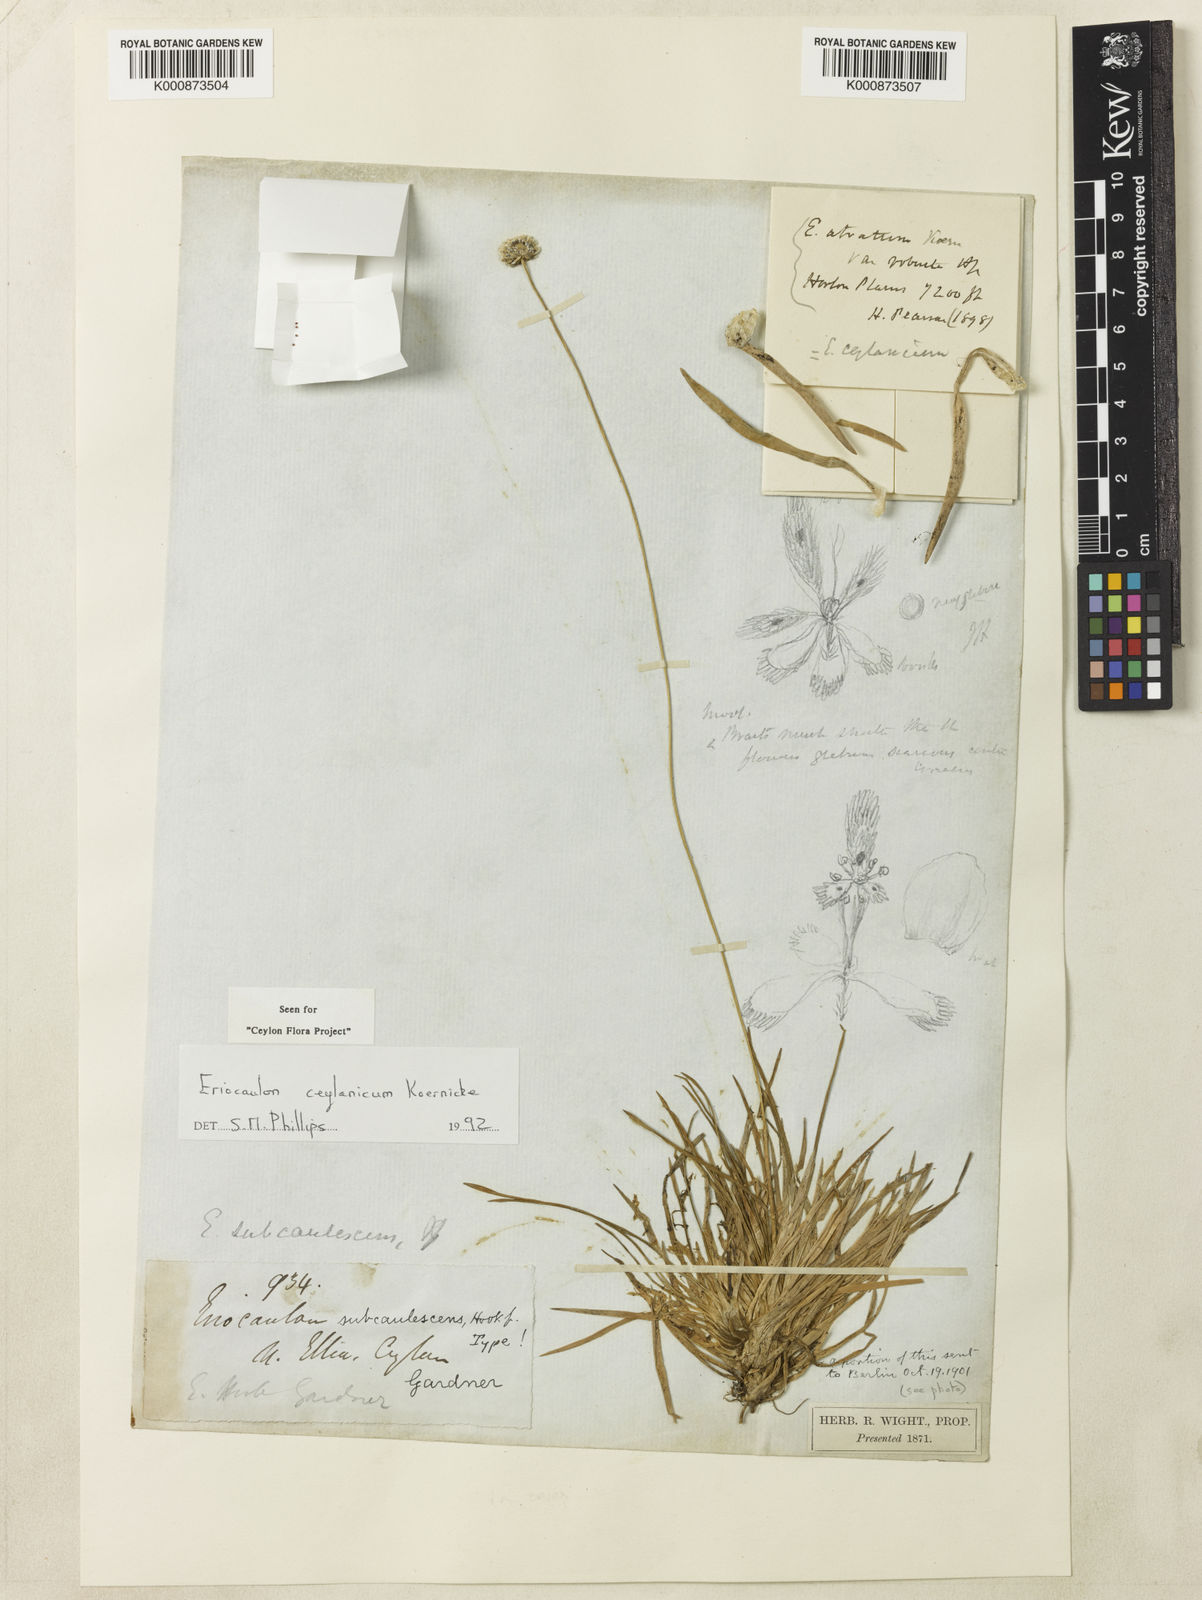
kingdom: Plantae
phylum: Tracheophyta
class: Liliopsida
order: Poales
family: Eriocaulaceae
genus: Eriocaulon
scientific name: Eriocaulon
